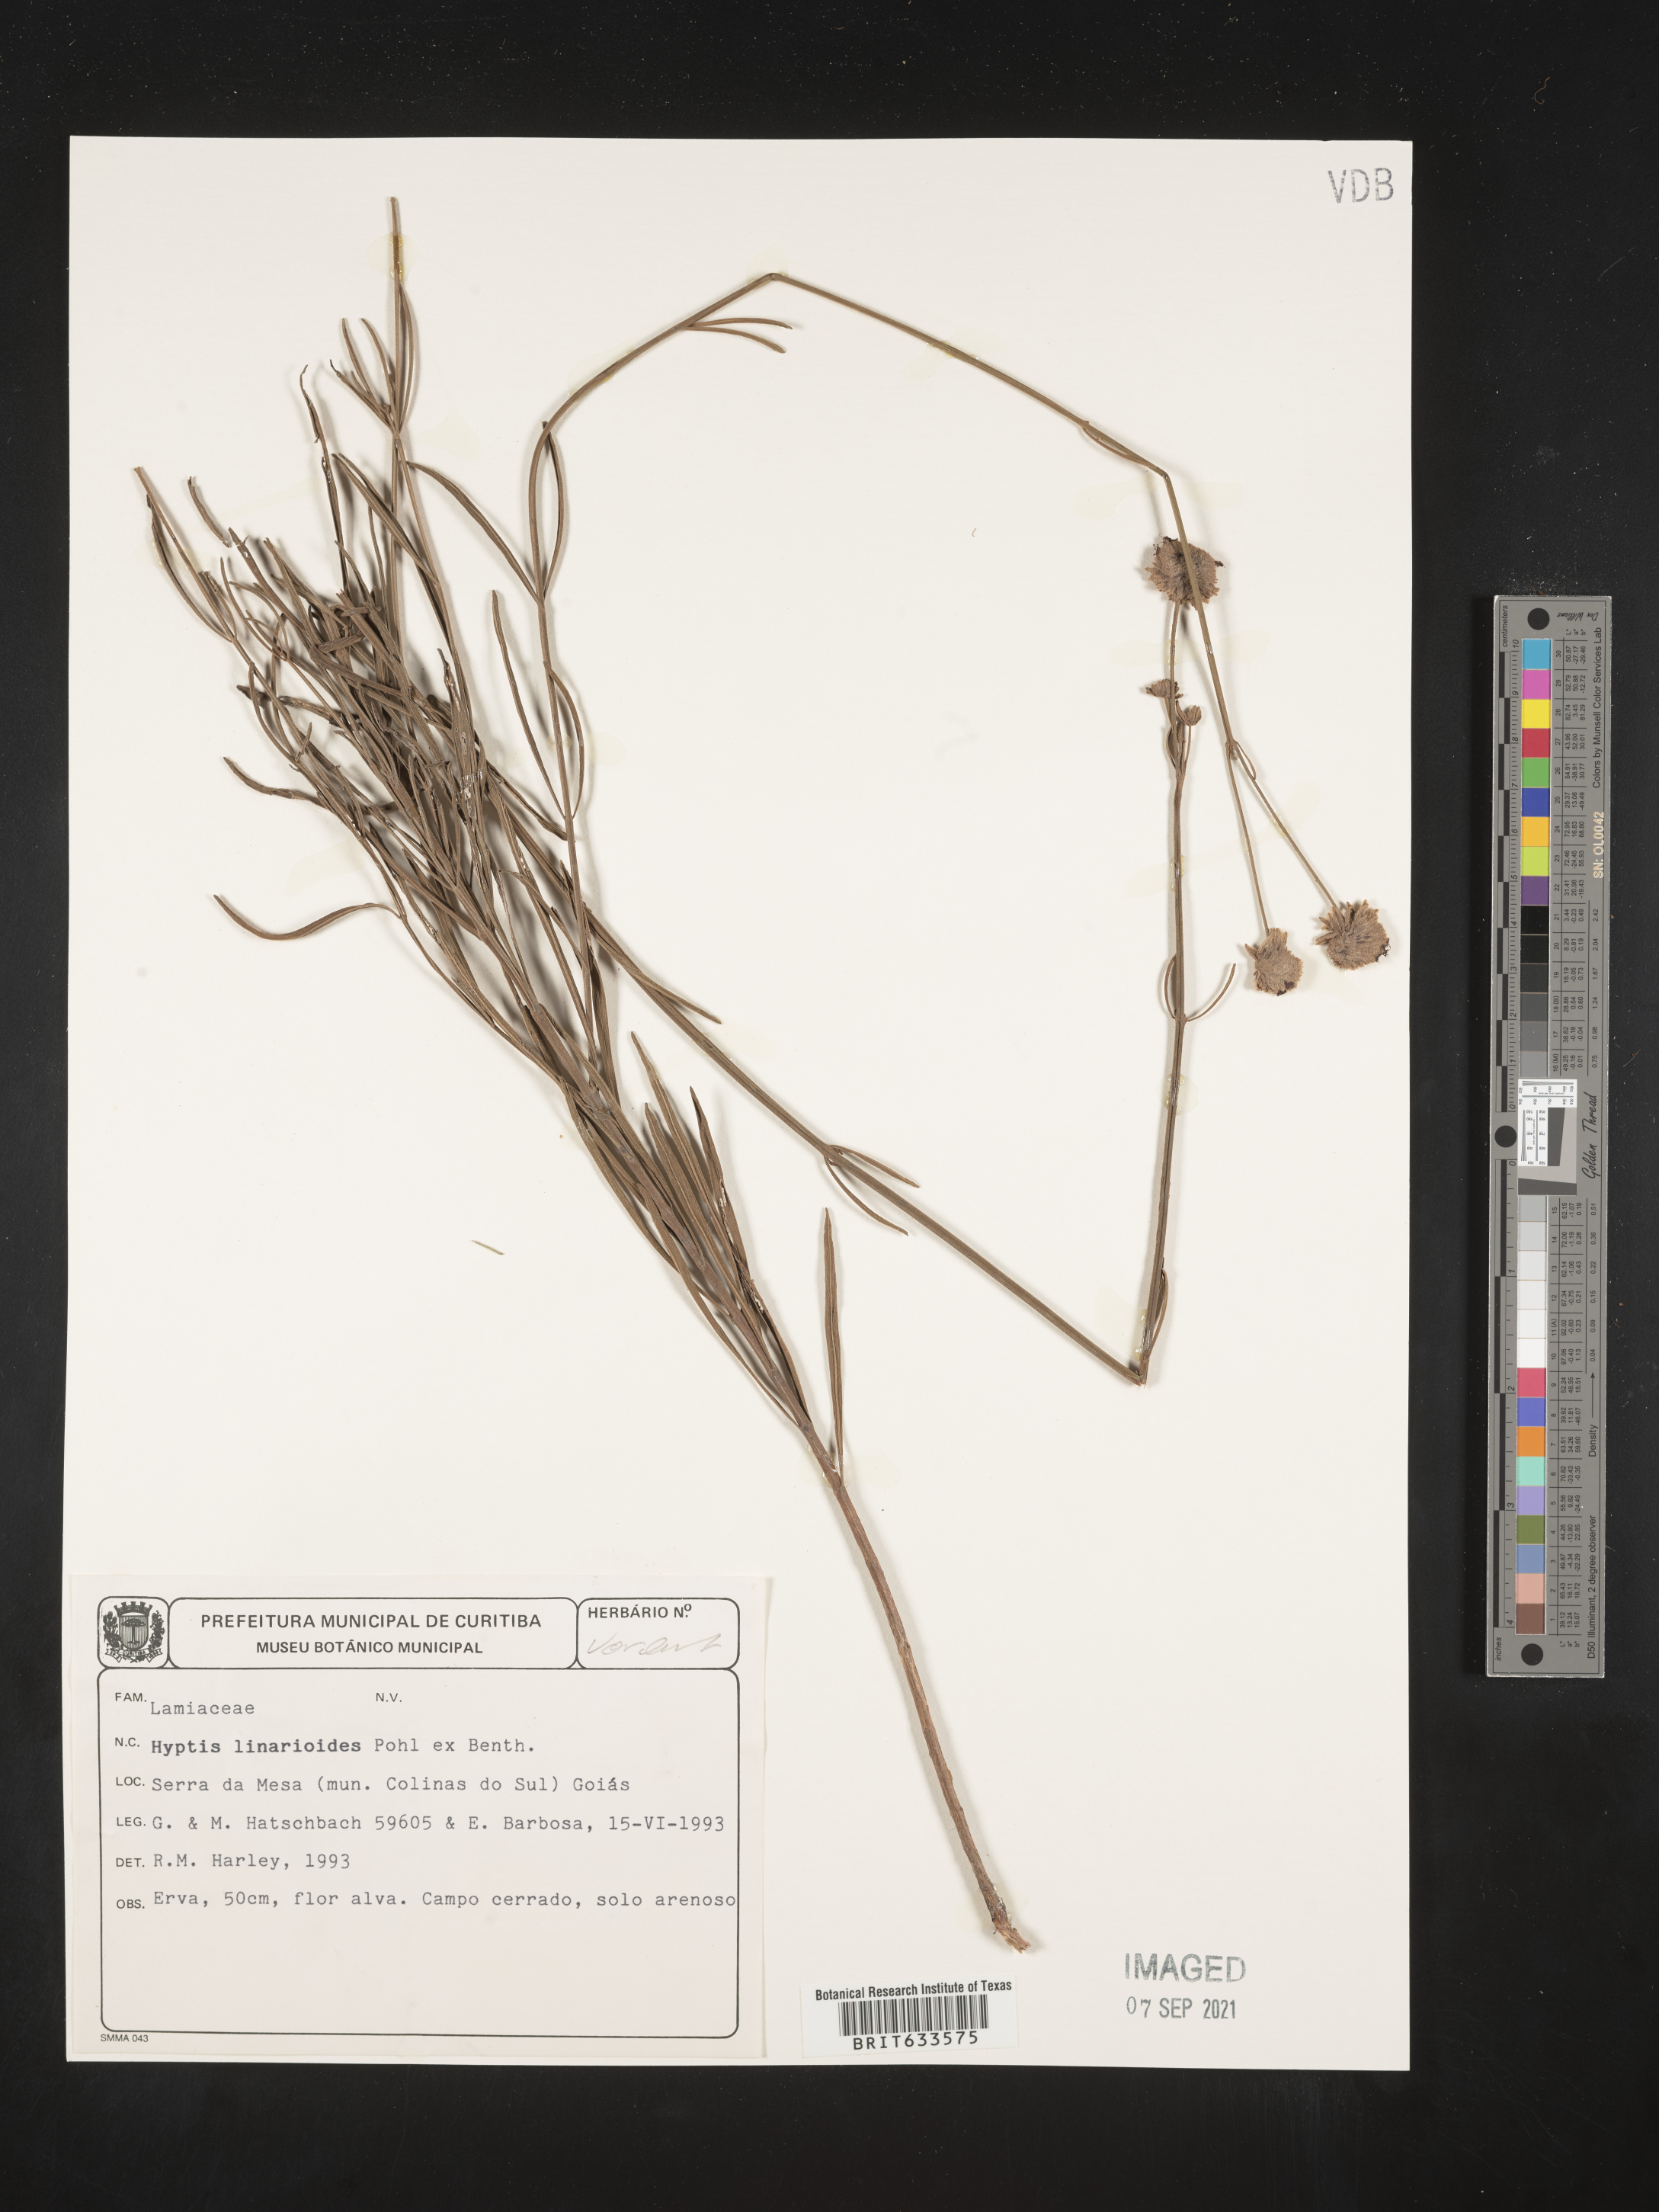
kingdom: Plantae
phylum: Tracheophyta
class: Magnoliopsida
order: Lamiales
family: Lamiaceae
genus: Hyptis
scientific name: Hyptis
